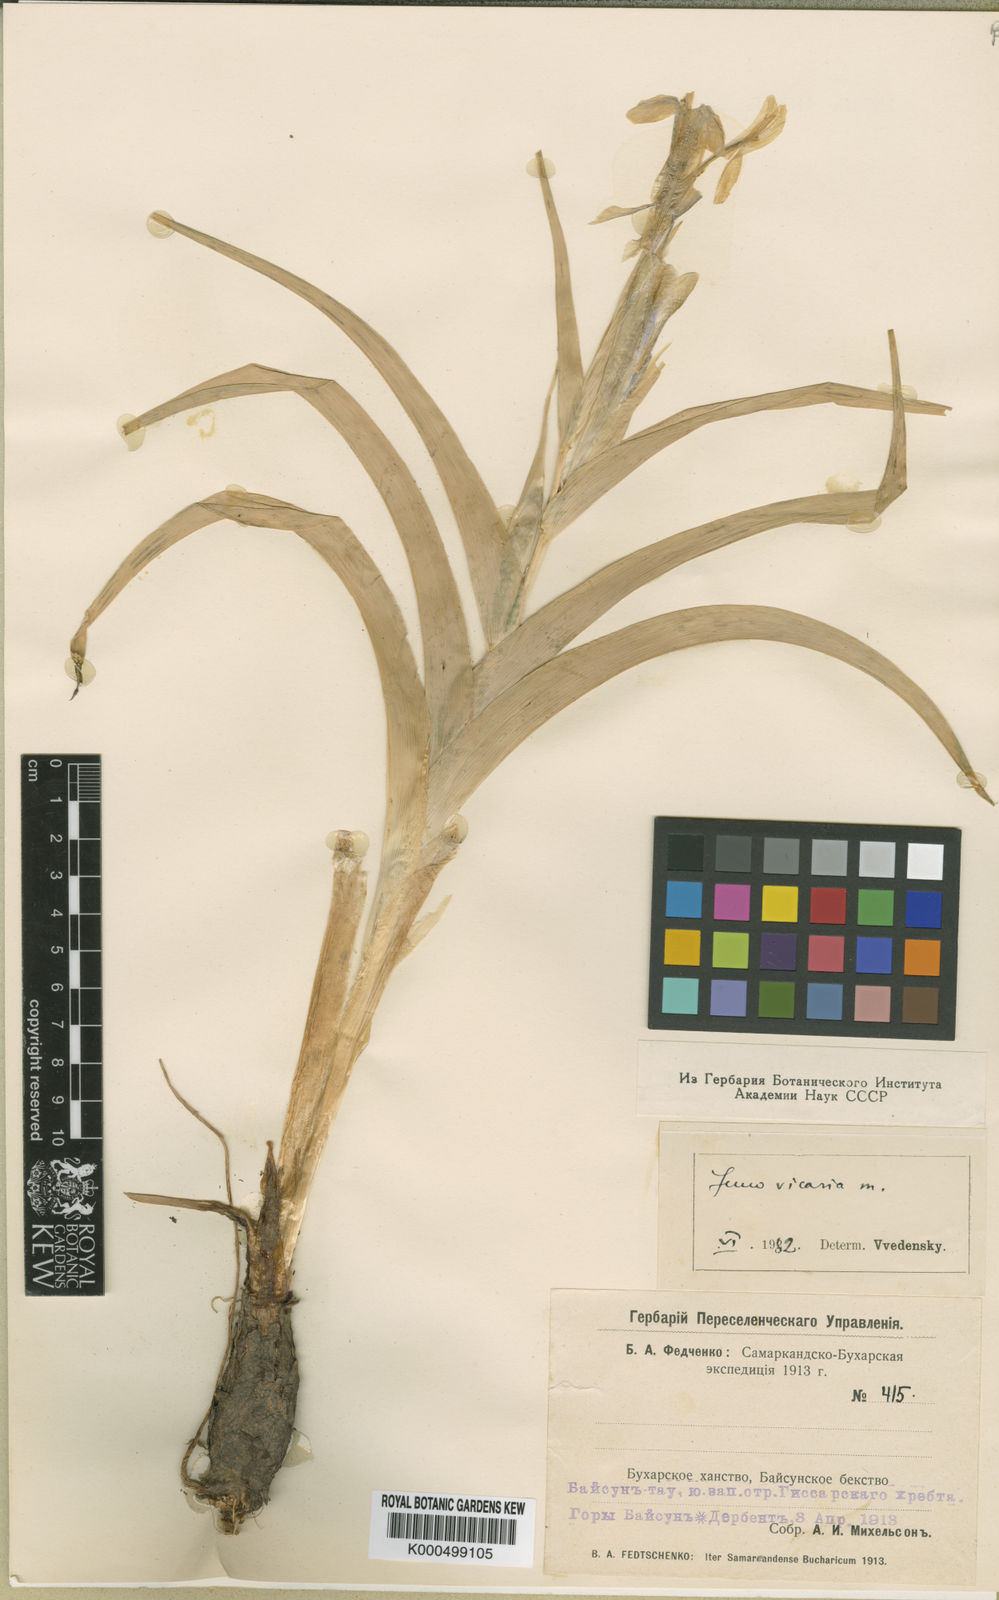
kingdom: Plantae
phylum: Tracheophyta
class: Liliopsida
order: Asparagales
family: Iridaceae
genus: Iris
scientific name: Iris vicaria
